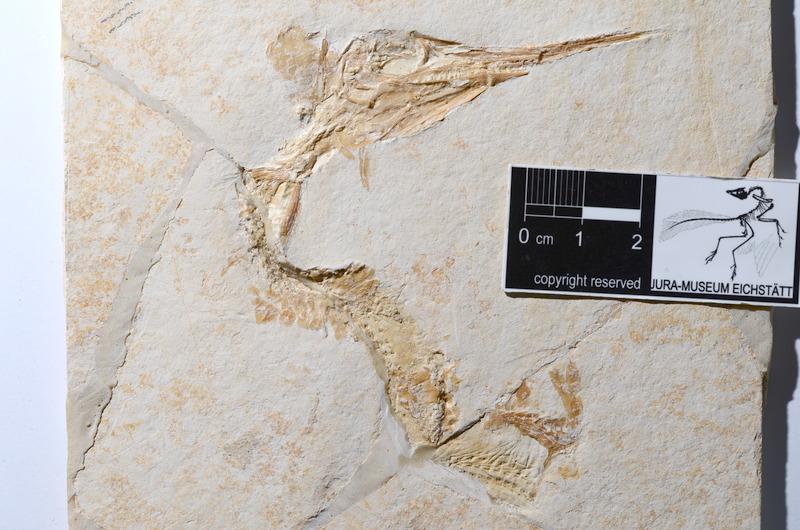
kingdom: Animalia
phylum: Chordata
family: Aspidorhynchidae
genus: Aspidorhynchus
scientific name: Aspidorhynchus acutirostris
